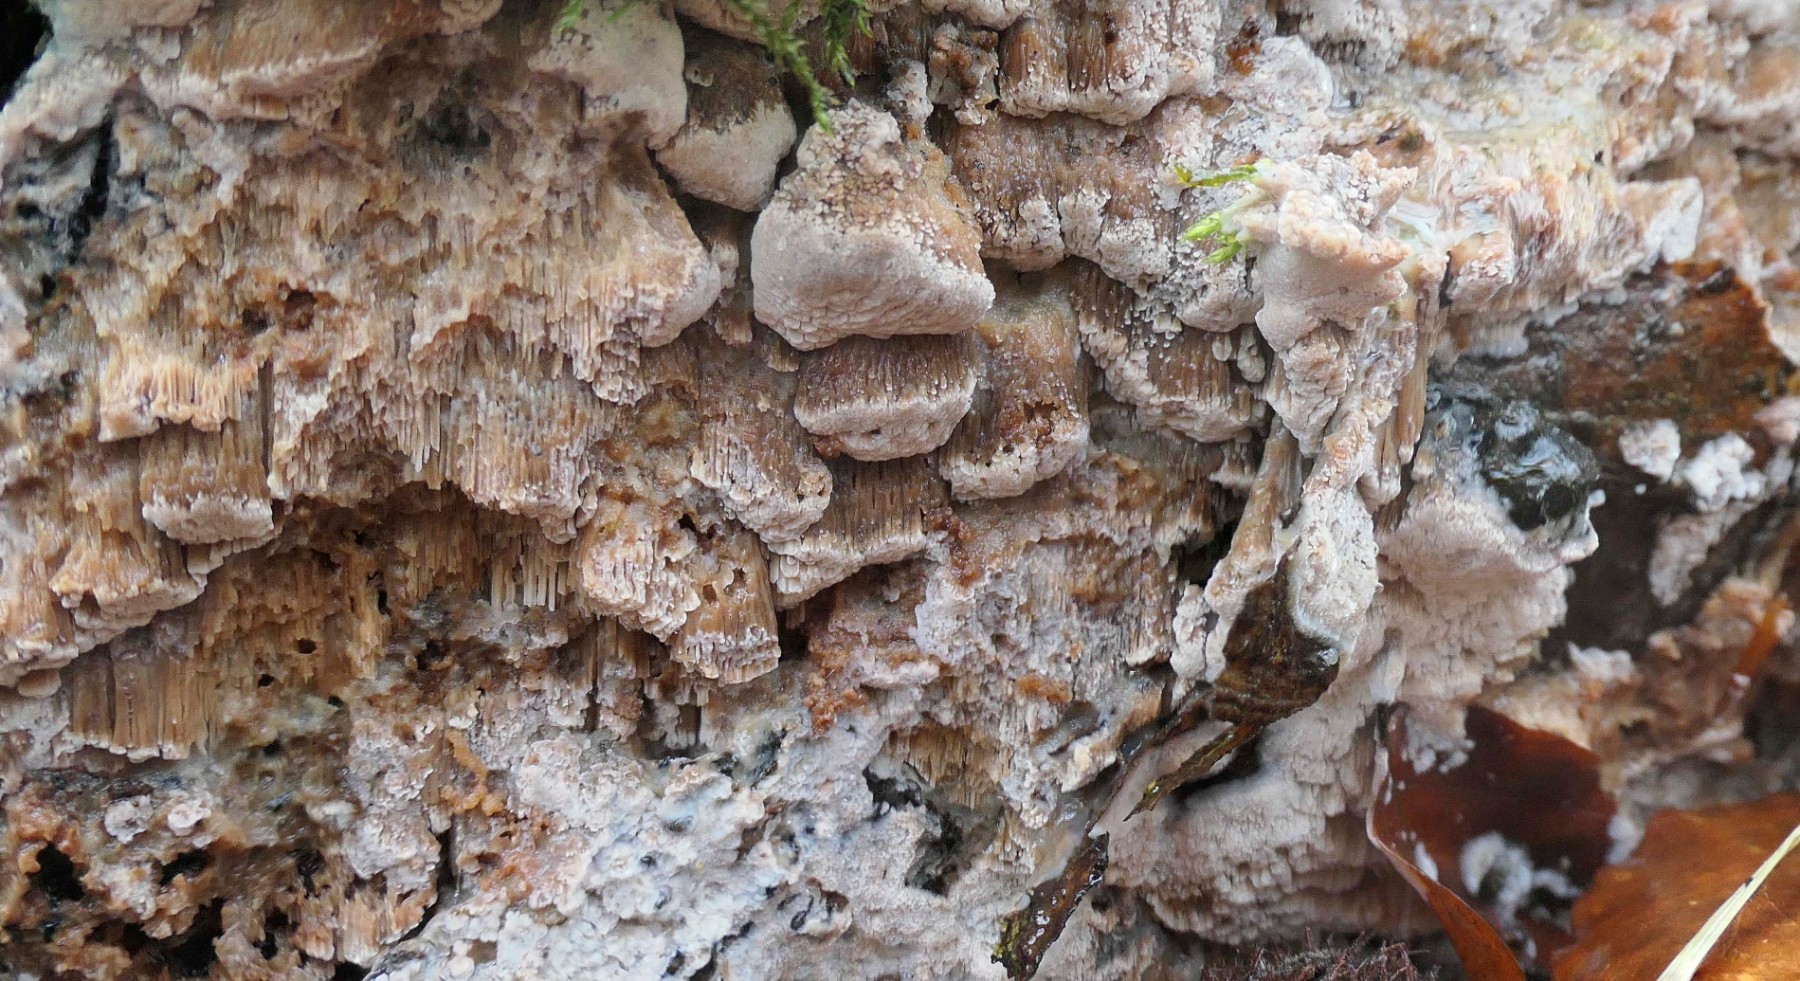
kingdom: Fungi
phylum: Basidiomycota
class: Agaricomycetes
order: Polyporales
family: Meripilaceae
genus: Rigidoporus
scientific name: Rigidoporus sanguinolentus
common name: blod-skorpeporesvamp
